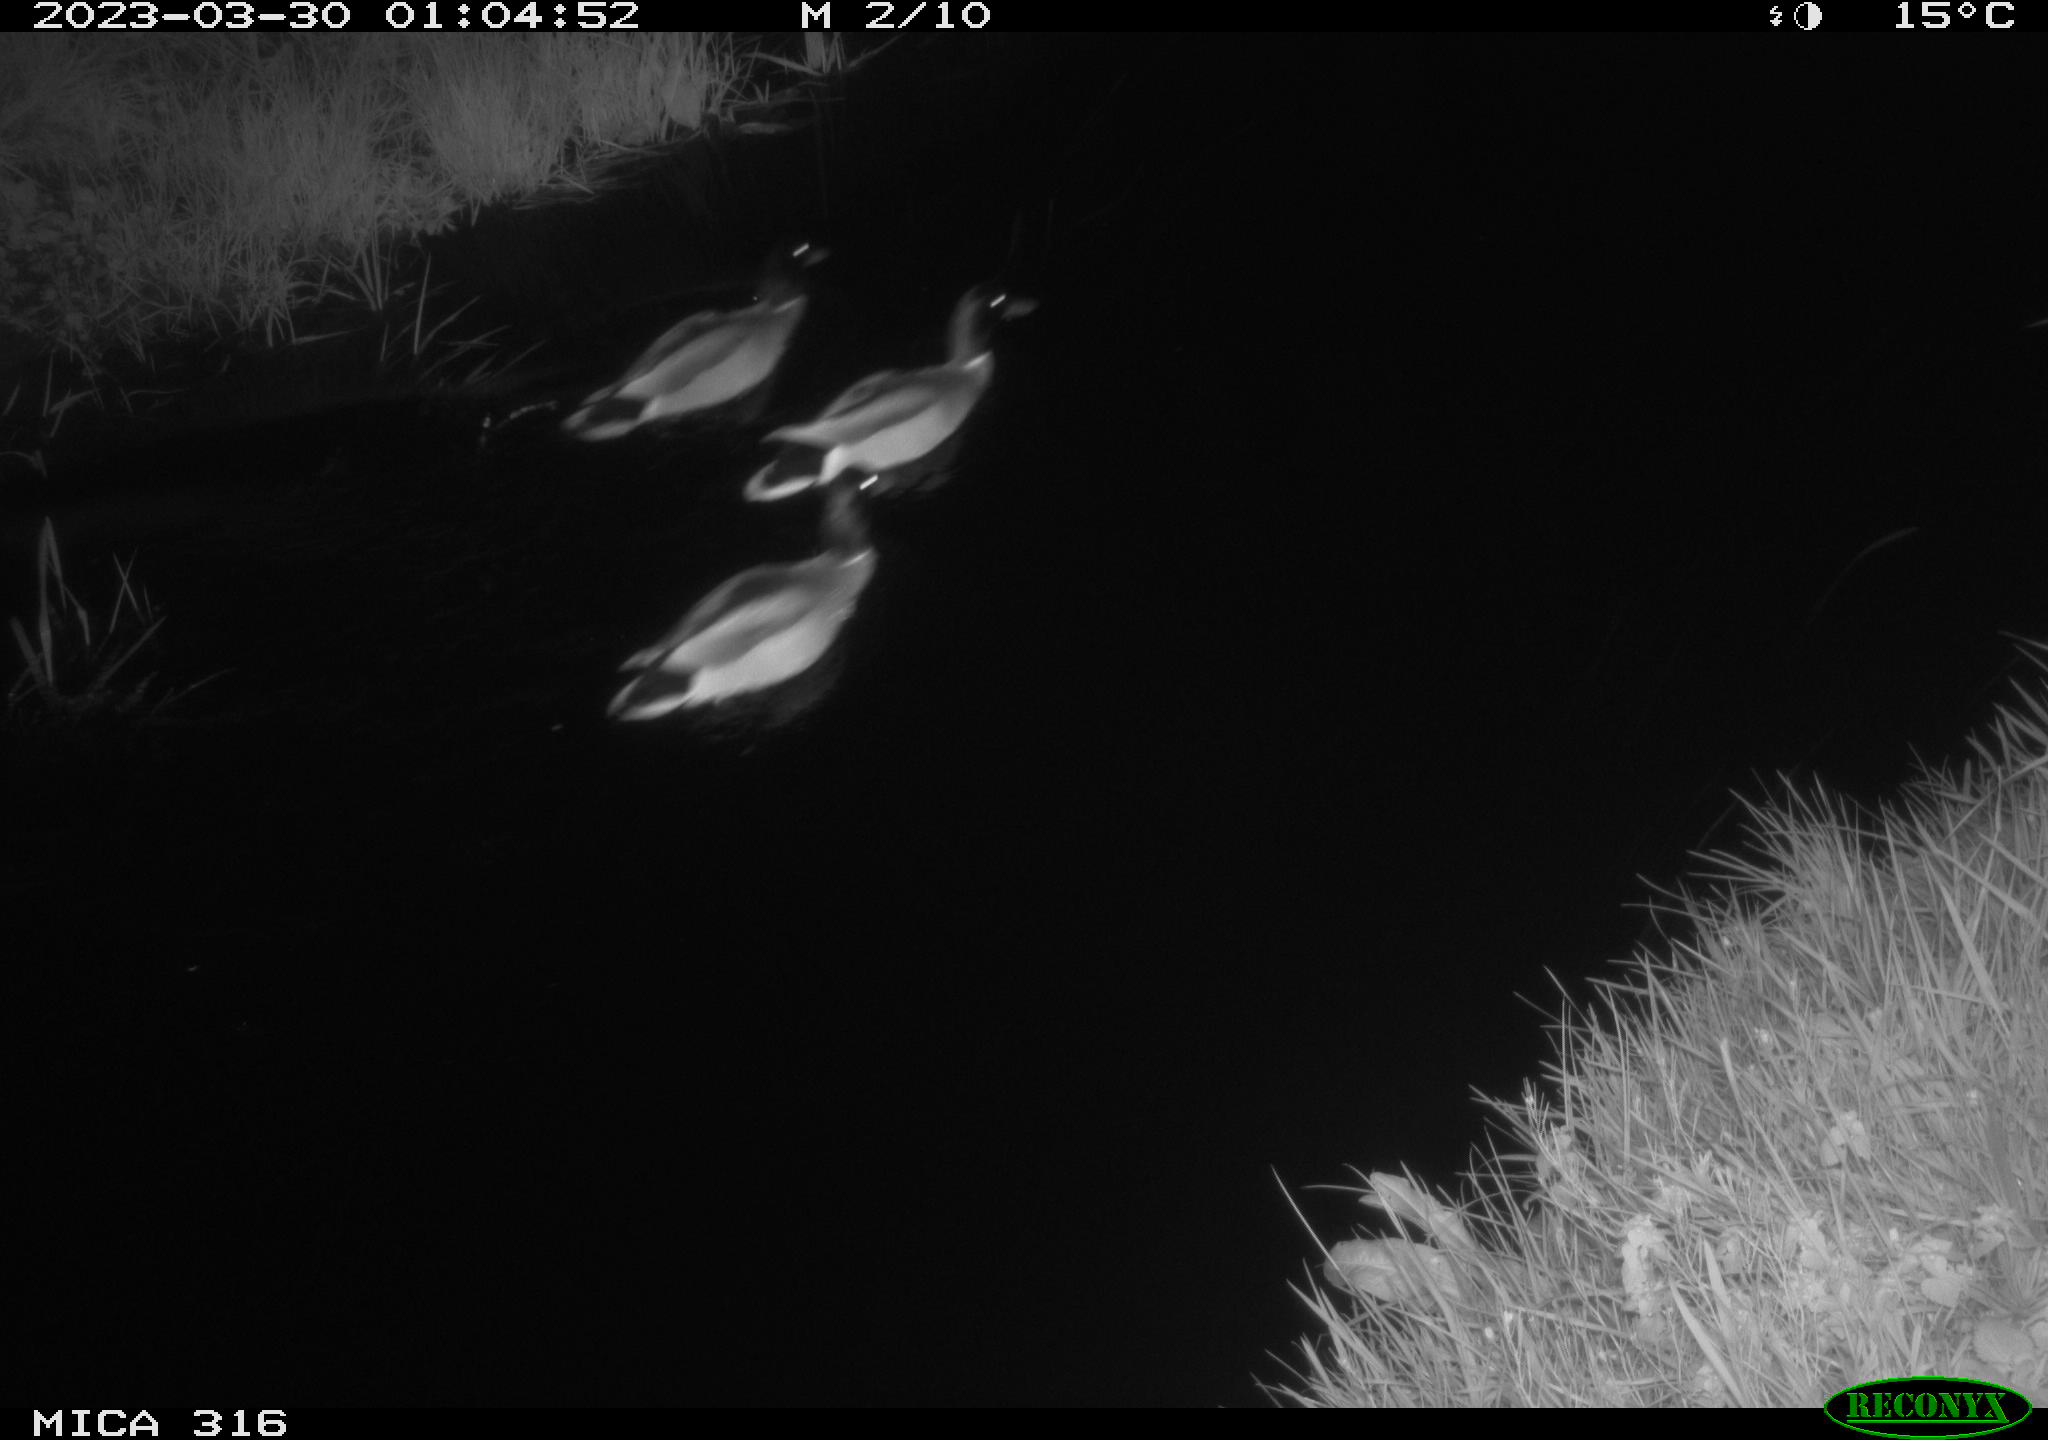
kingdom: Animalia
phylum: Chordata
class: Aves
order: Anseriformes
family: Anatidae
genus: Anas
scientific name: Anas
